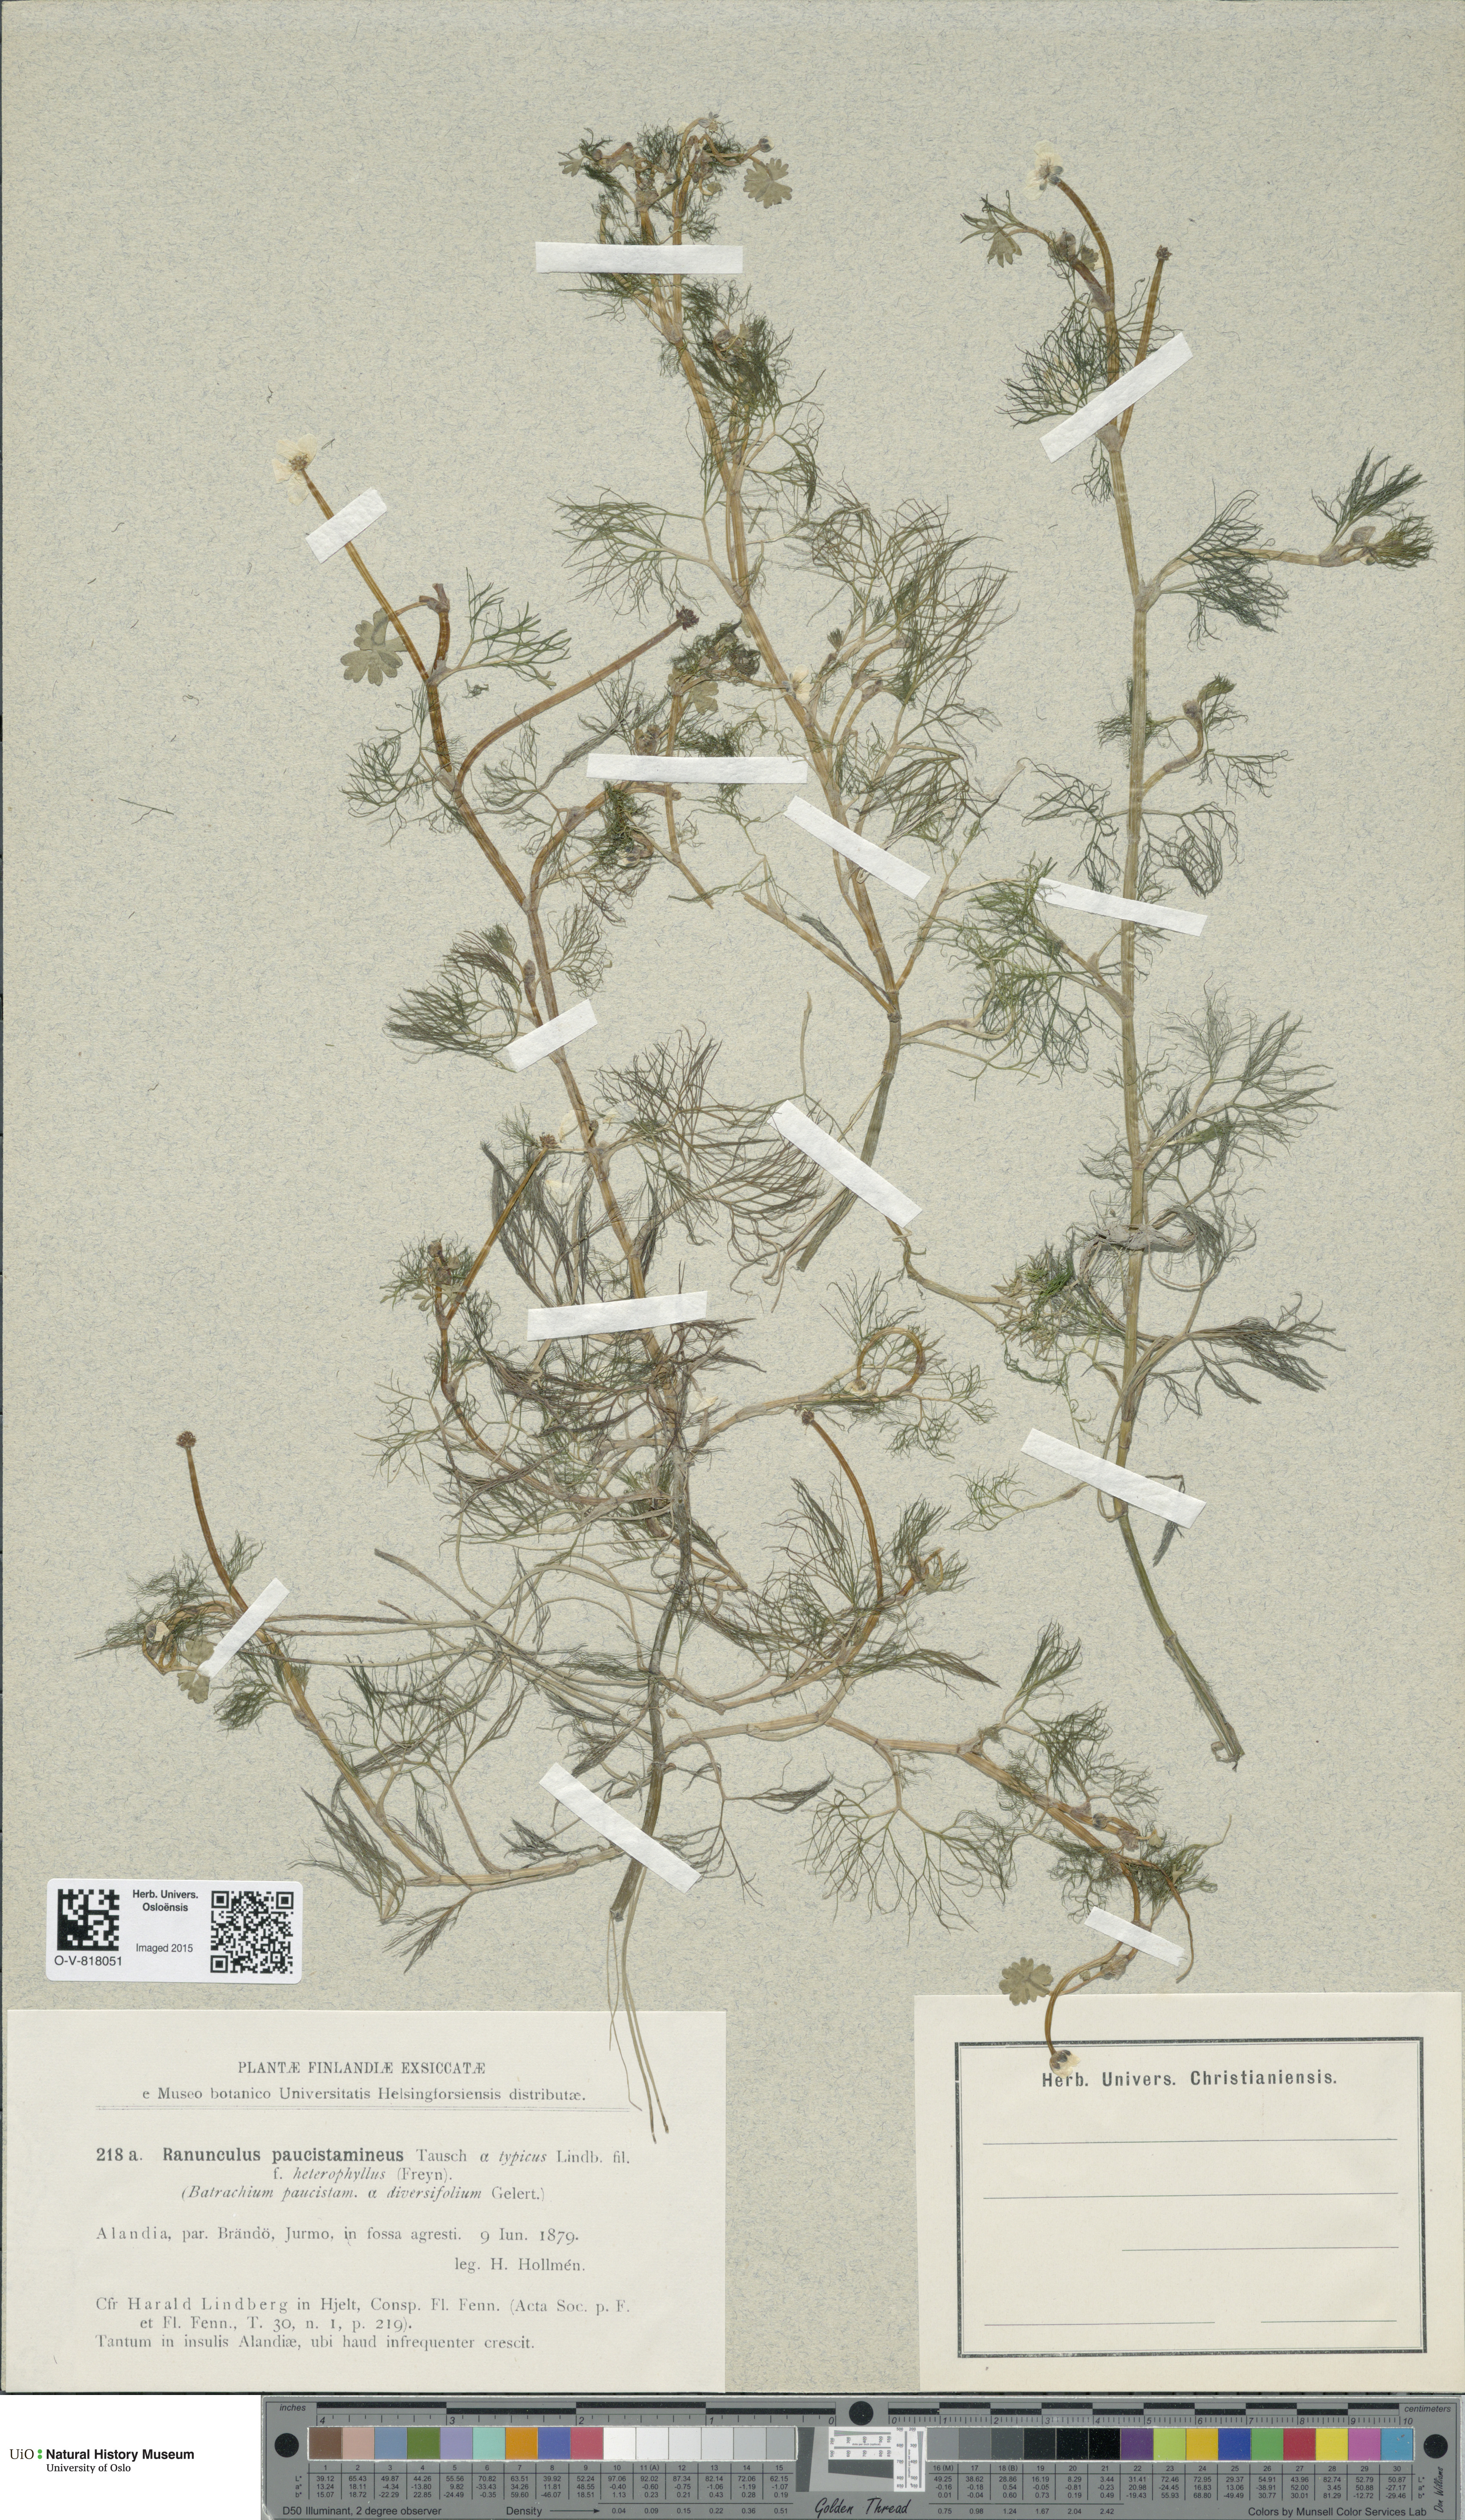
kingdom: Plantae
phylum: Tracheophyta
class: Magnoliopsida
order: Ranunculales
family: Ranunculaceae
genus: Ranunculus
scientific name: Ranunculus trichophyllus
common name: Thread-leaved water-crowfoot
